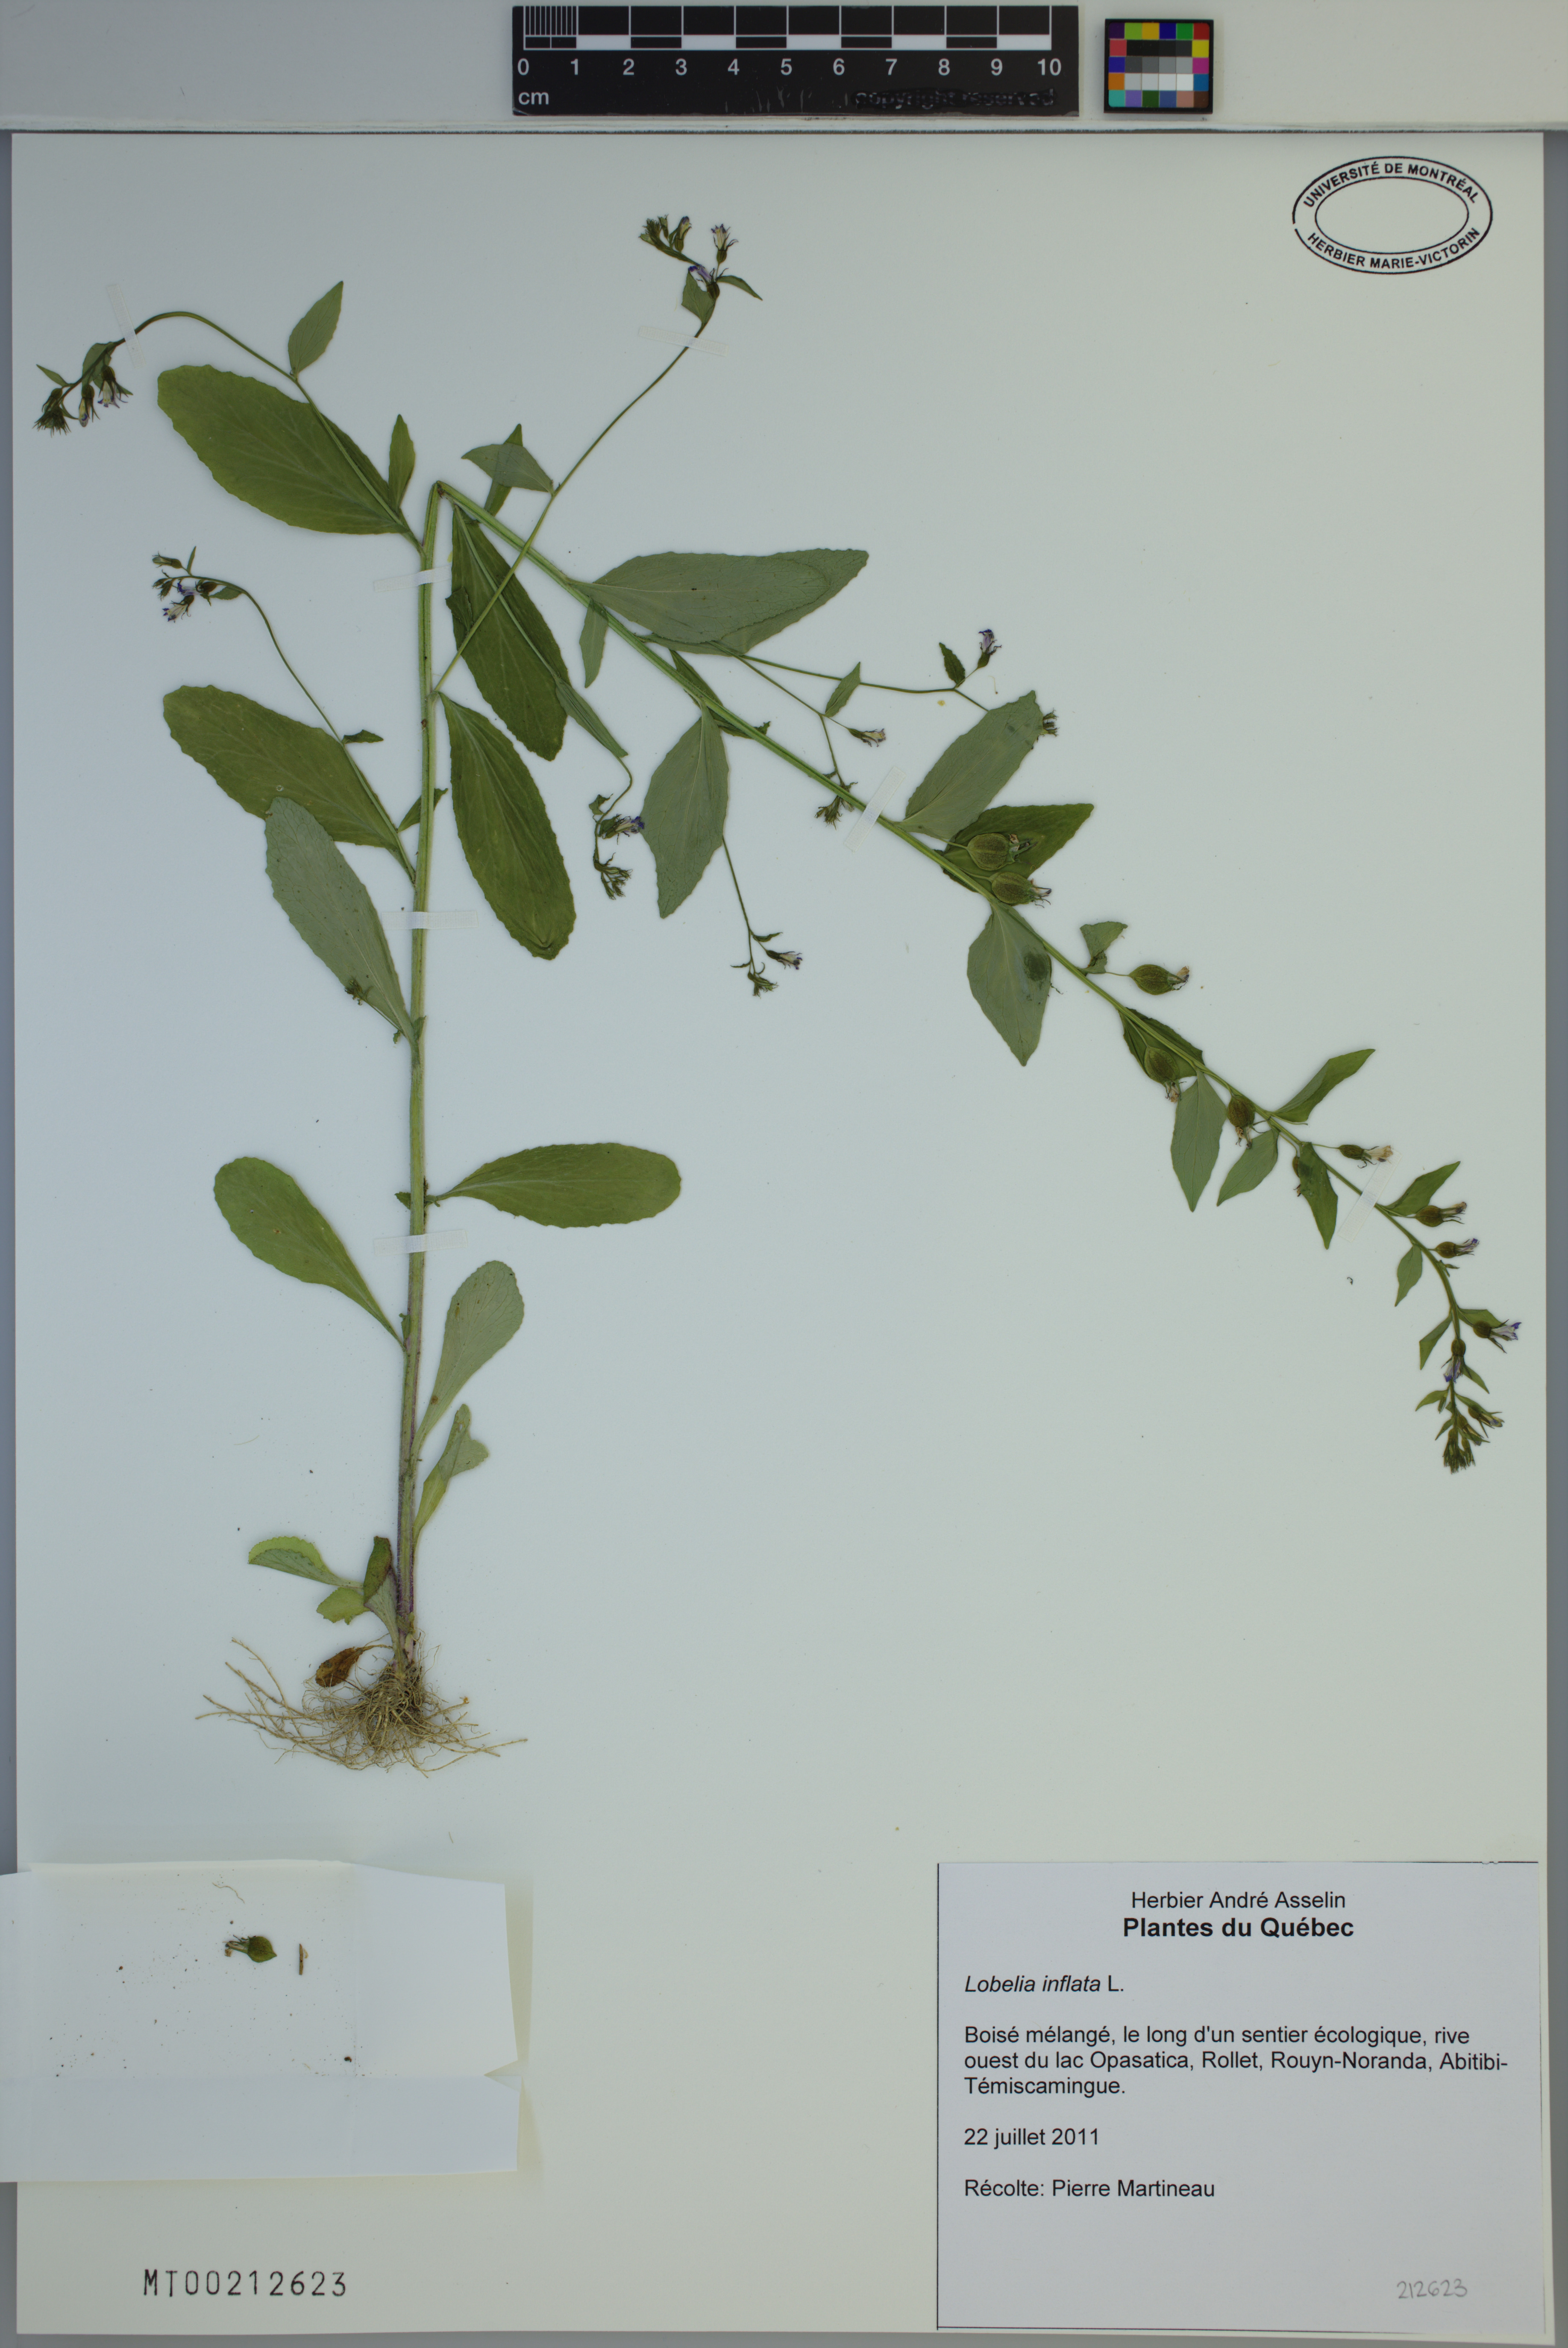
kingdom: Plantae
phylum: Tracheophyta
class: Magnoliopsida
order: Asterales
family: Campanulaceae
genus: Lobelia
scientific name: Lobelia inflata
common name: Indian tobacco
